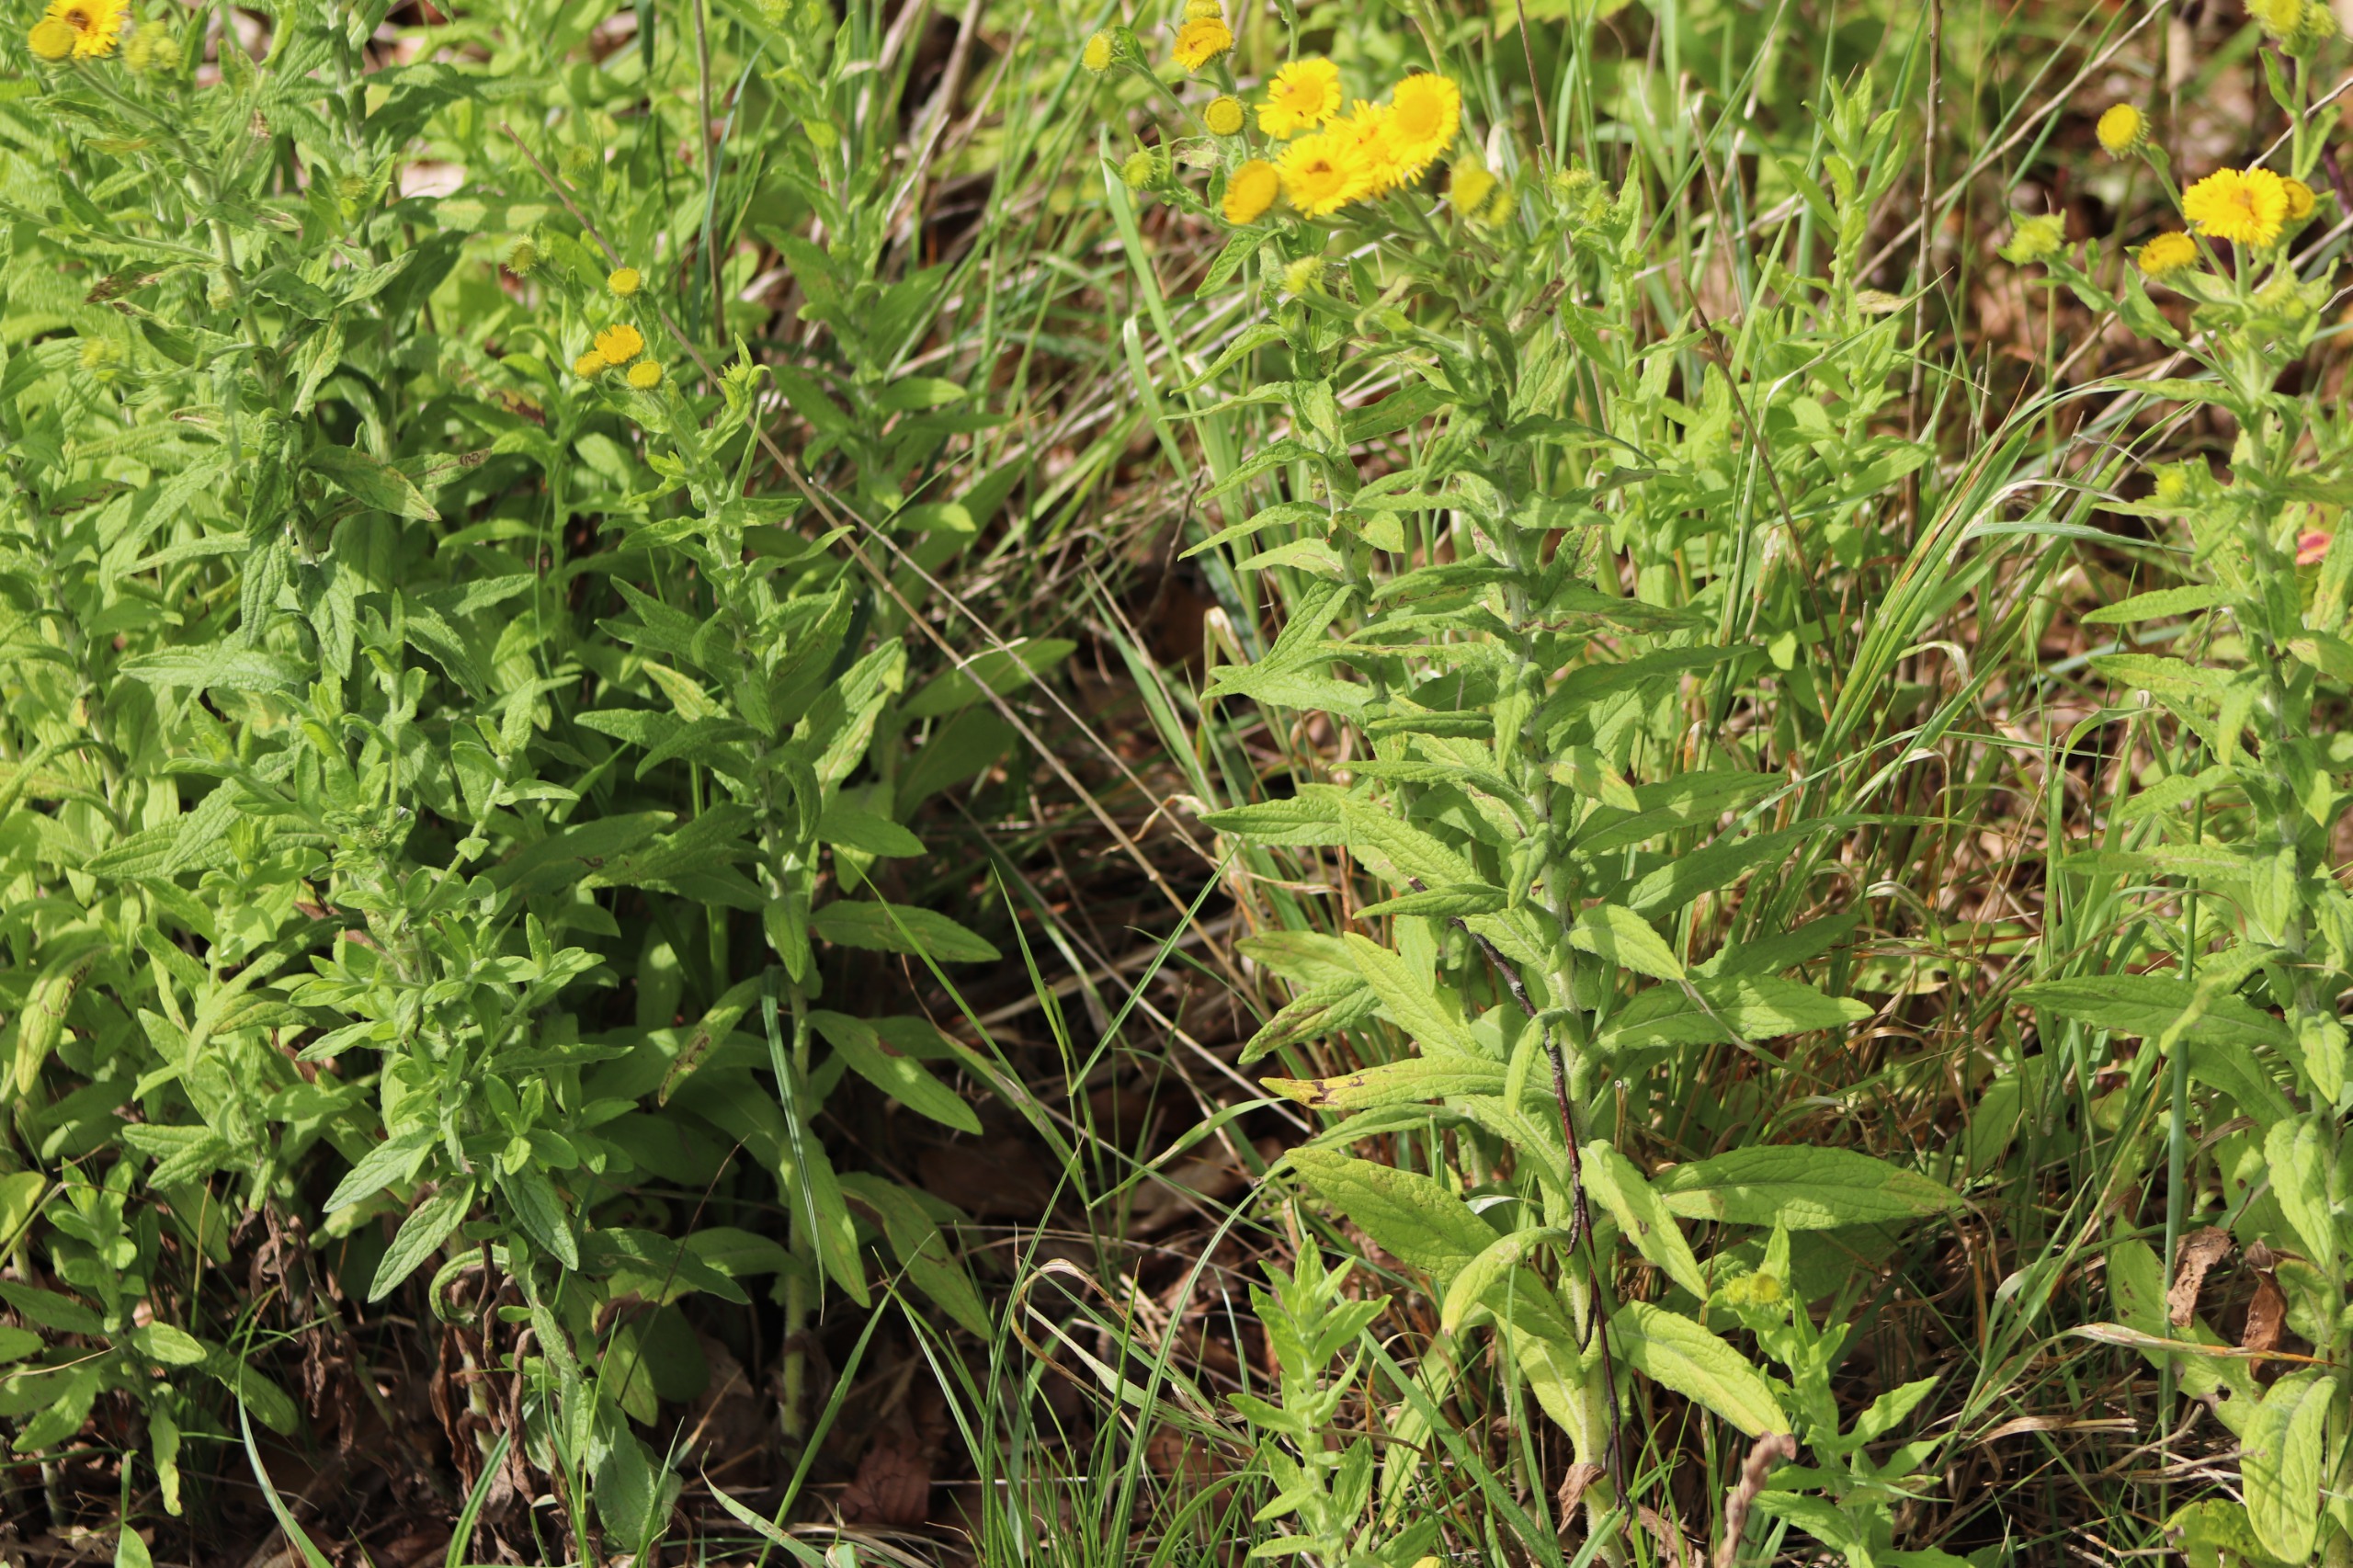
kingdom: Plantae
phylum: Tracheophyta
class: Magnoliopsida
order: Asterales
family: Asteraceae
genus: Pulicaria
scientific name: Pulicaria dysenterica
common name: Strand-loppeurt
